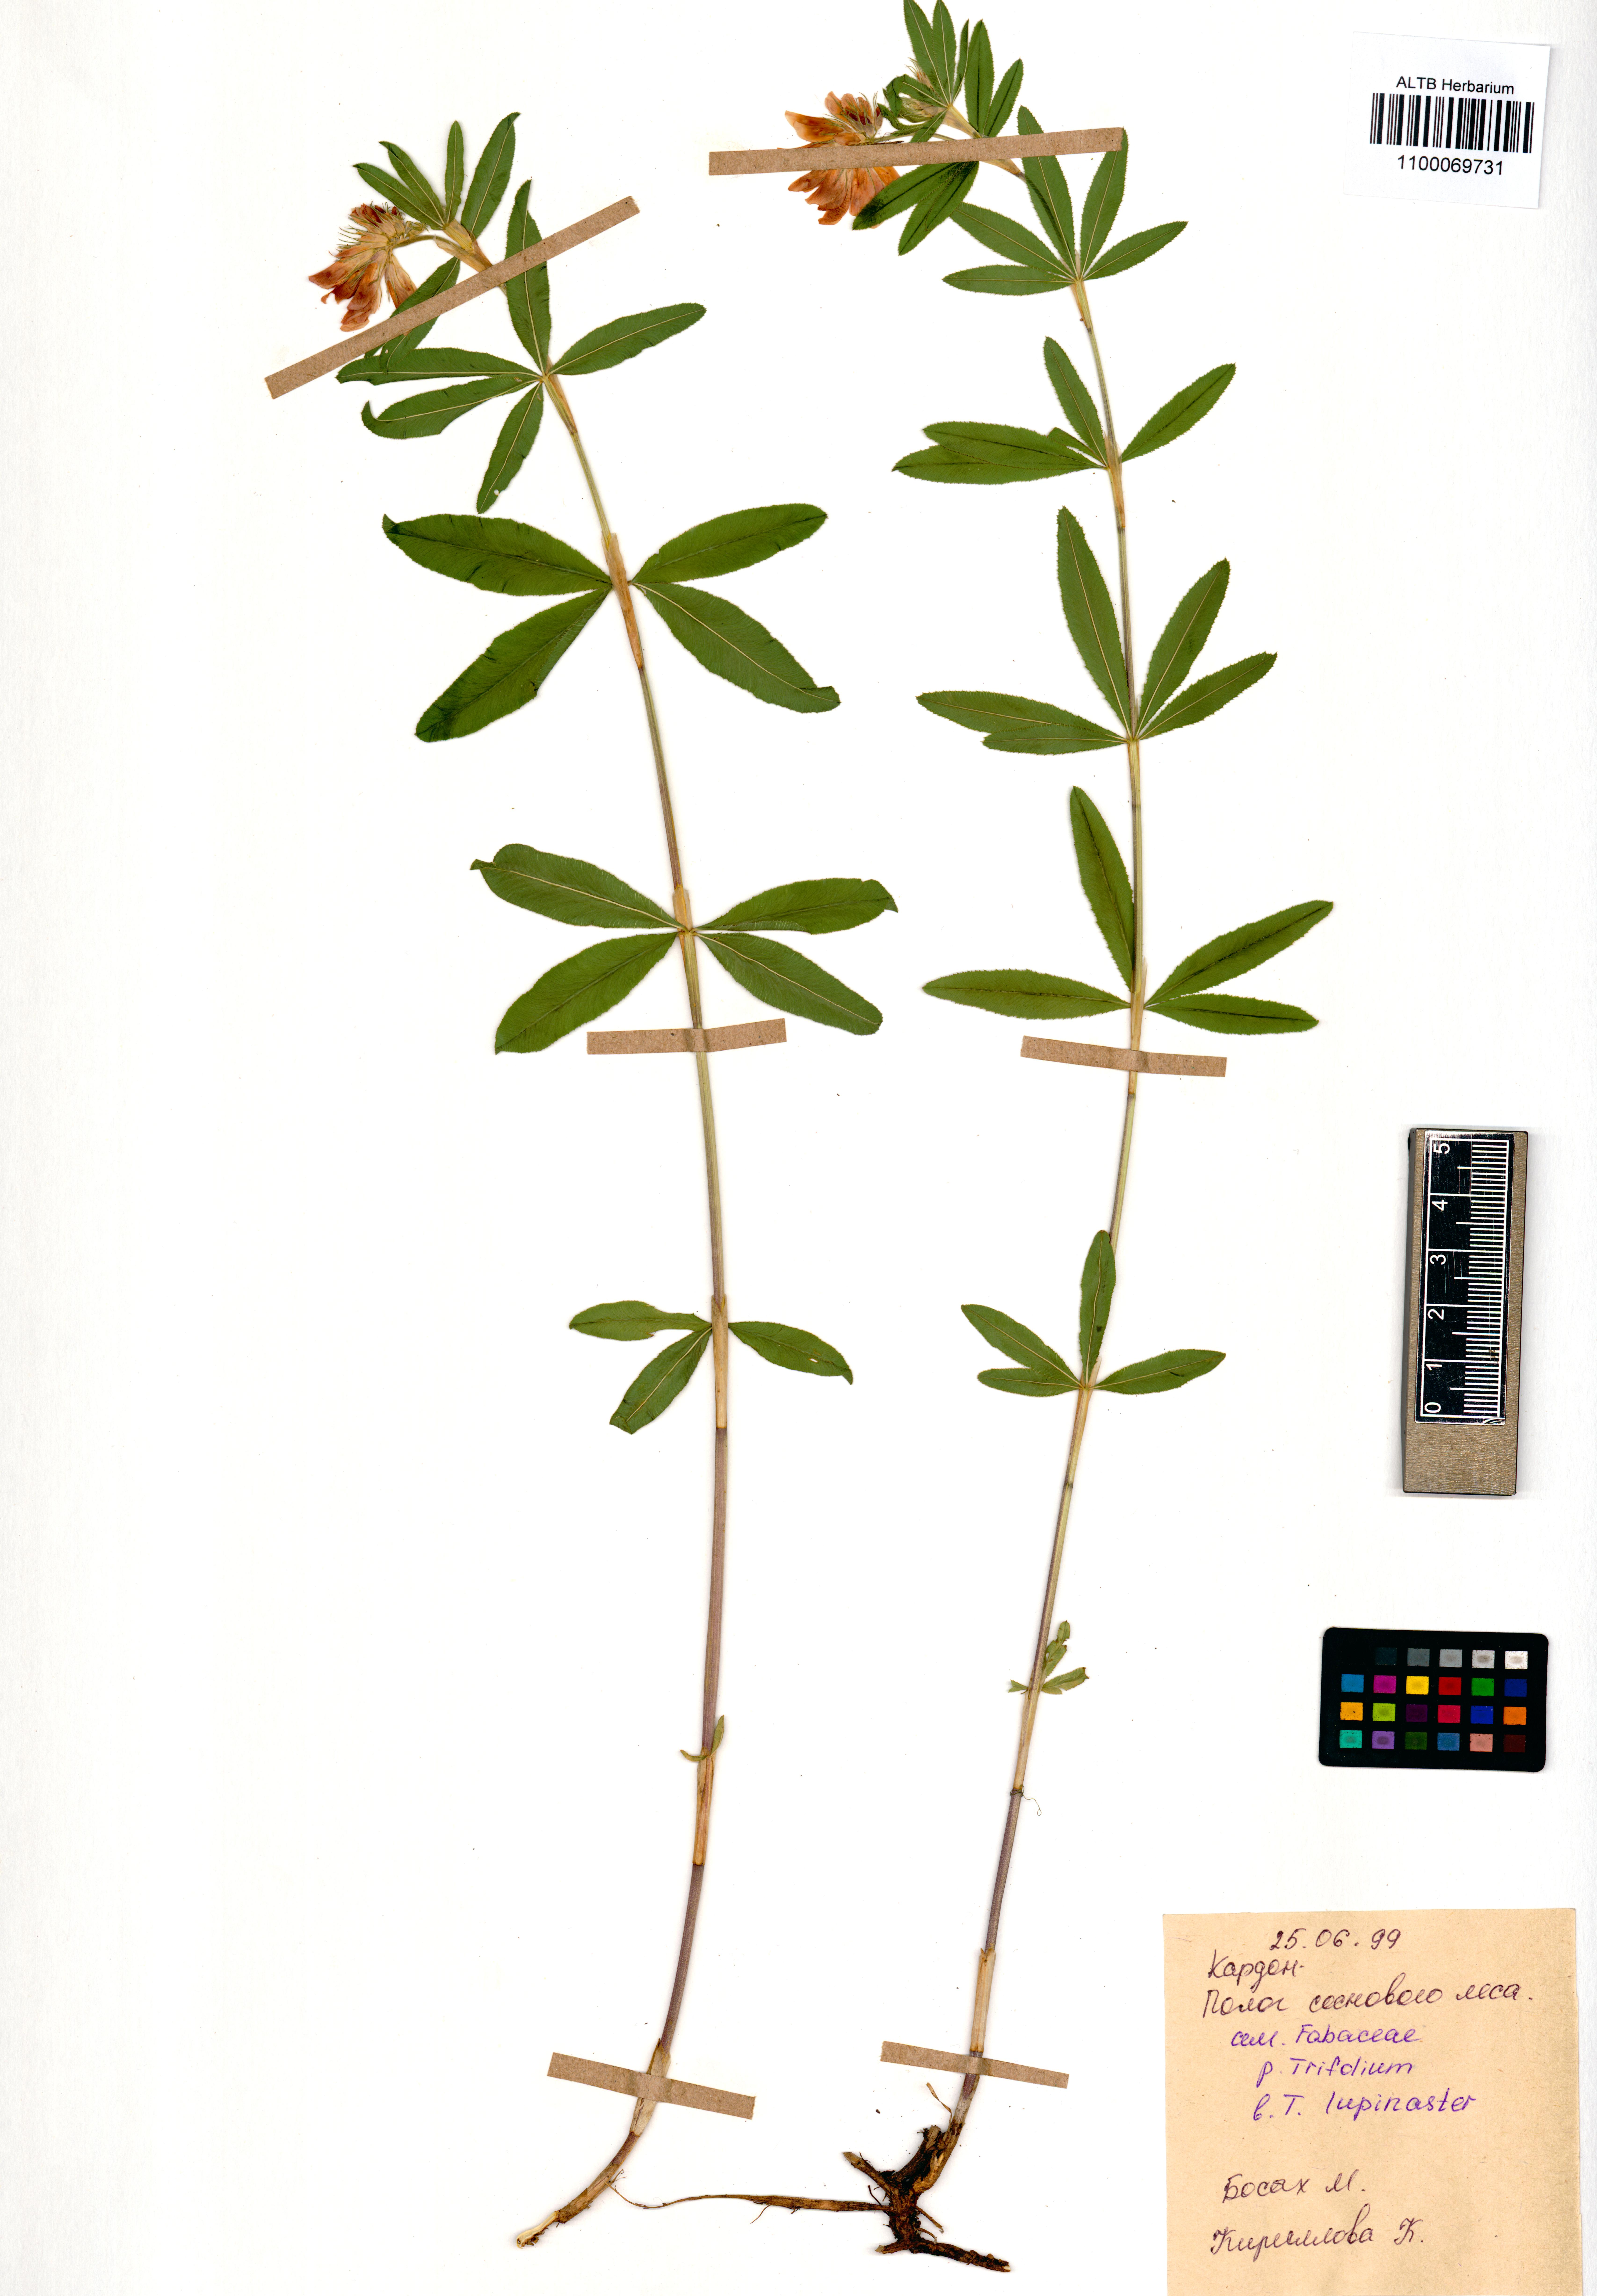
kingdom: Plantae
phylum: Tracheophyta
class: Magnoliopsida
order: Fabales
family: Fabaceae
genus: Trifolium
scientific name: Trifolium lupinaster
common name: Lupine clover
